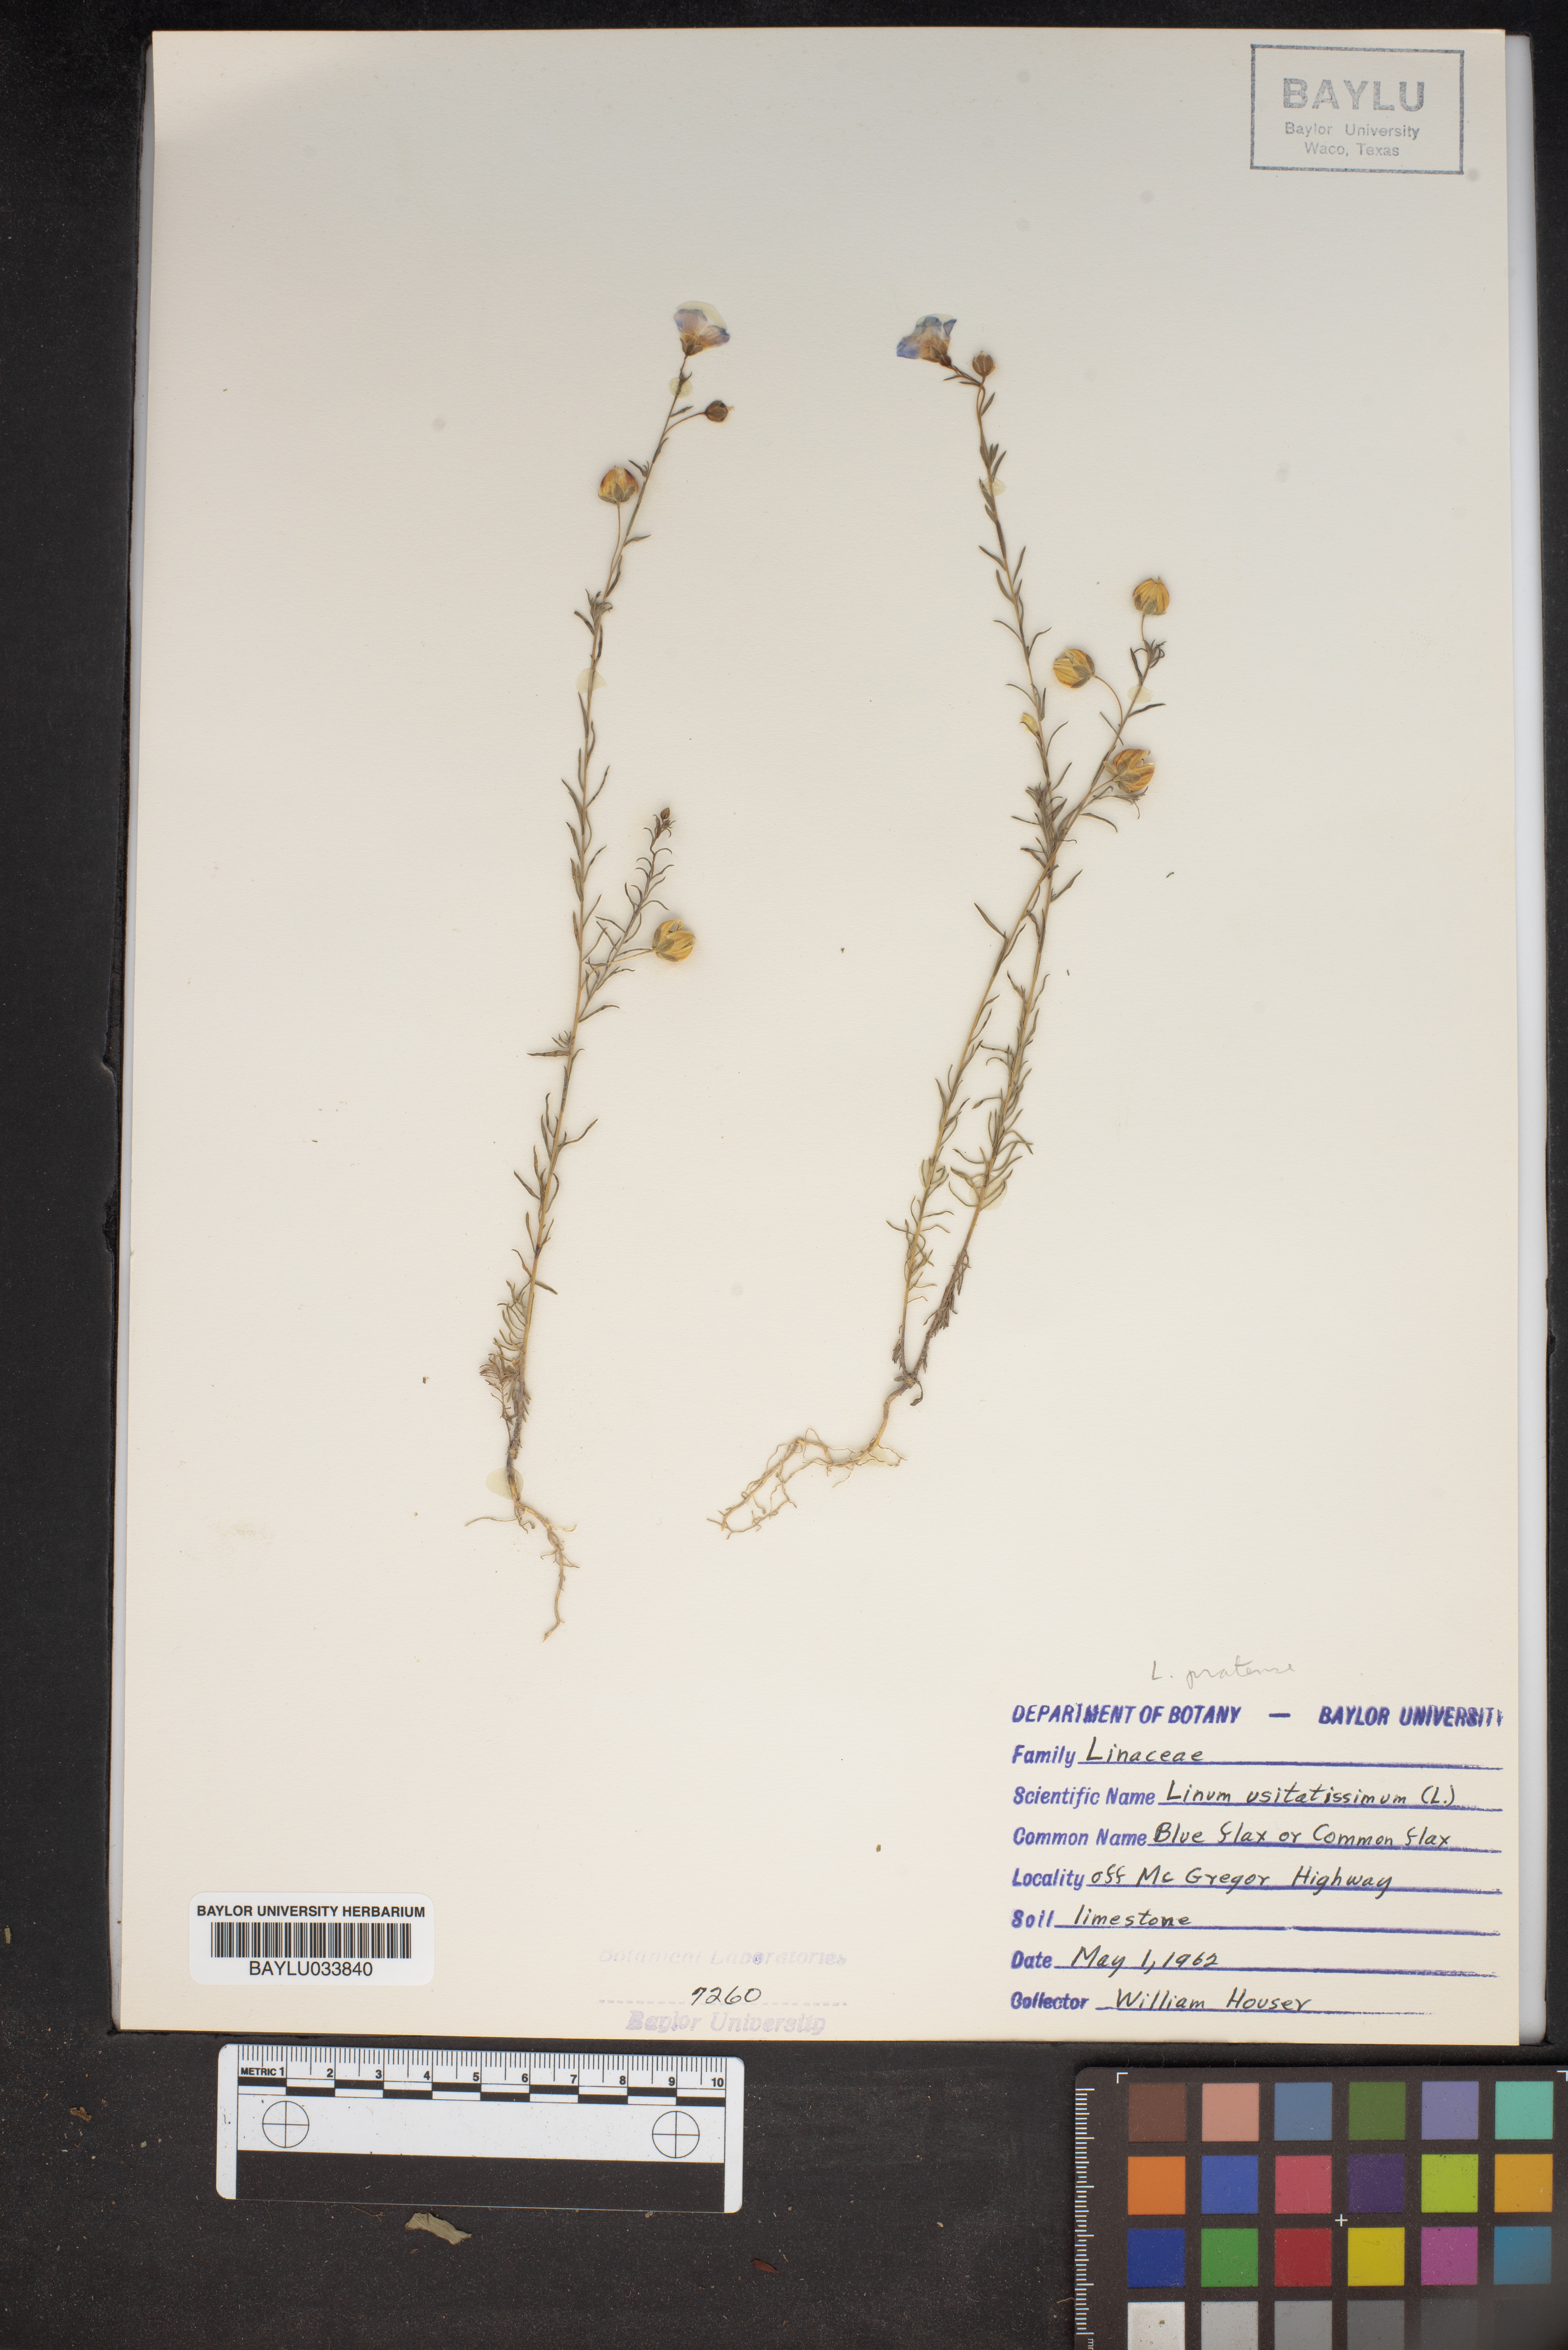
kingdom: Plantae
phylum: Tracheophyta
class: Magnoliopsida
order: Malpighiales
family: Linaceae
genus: Linum
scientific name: Linum usitatissimum
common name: Flax
